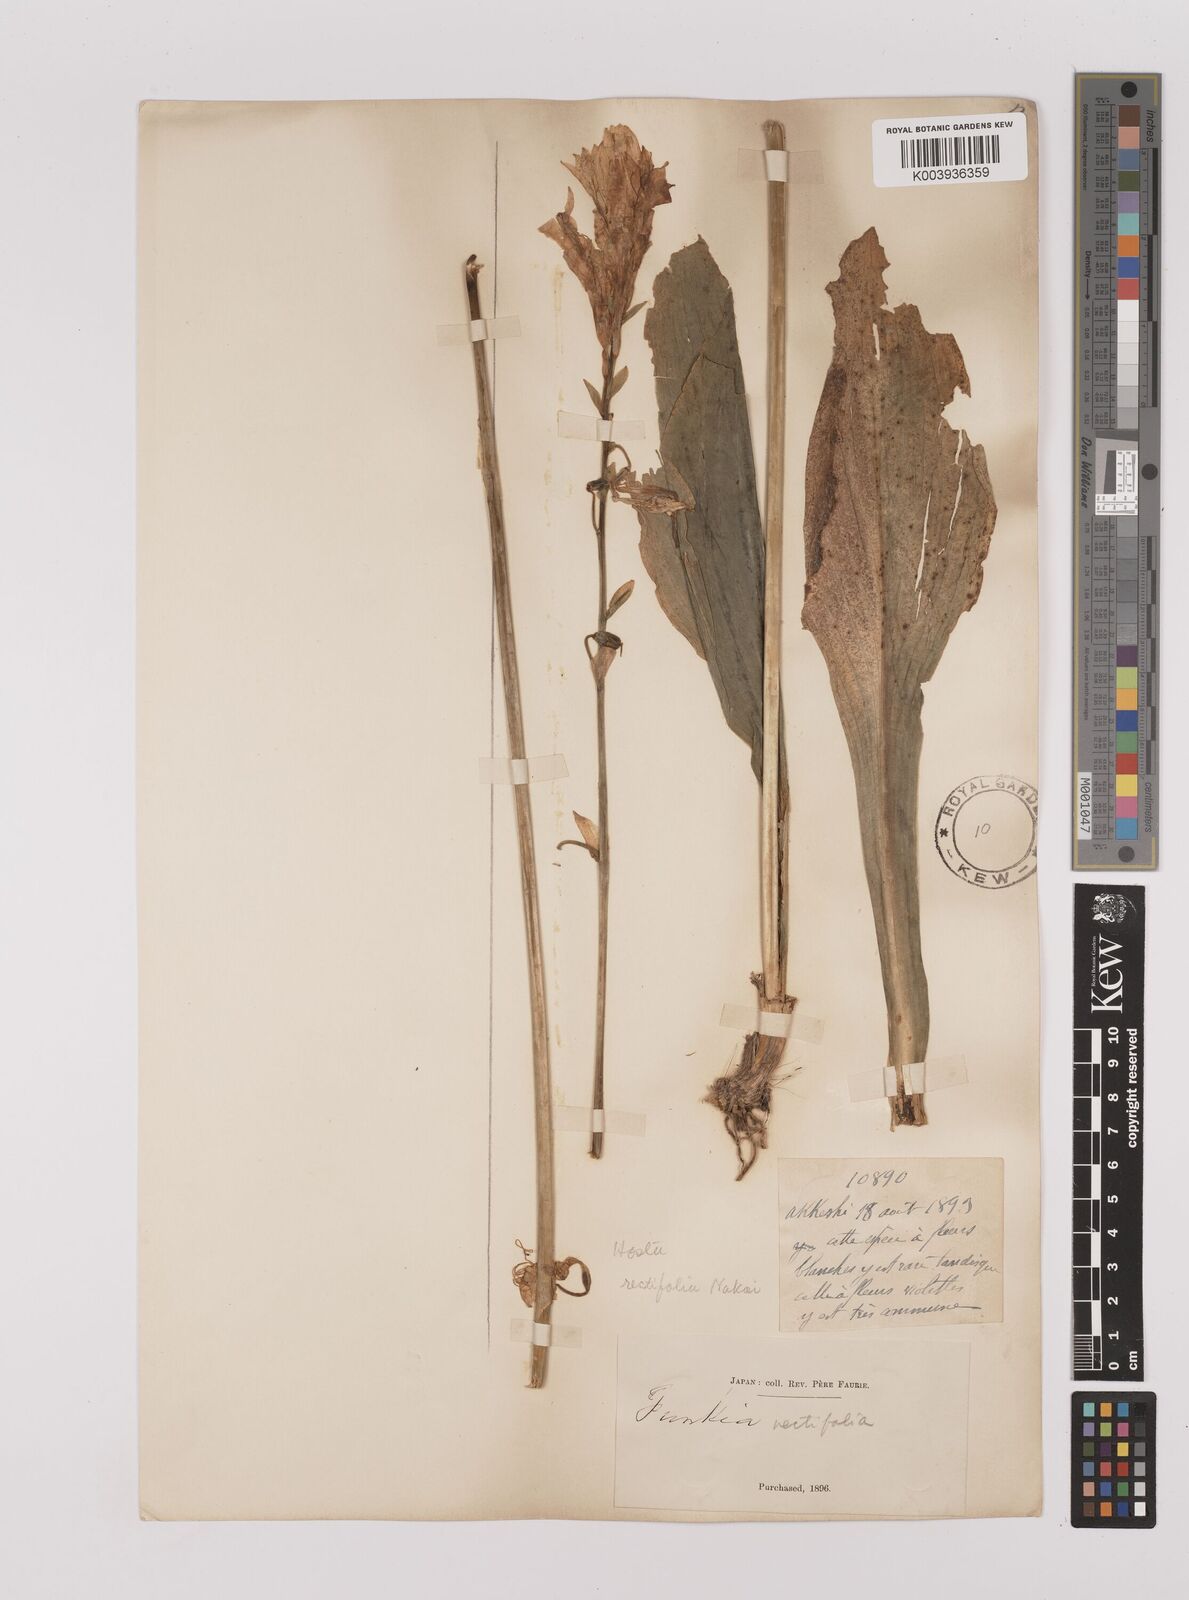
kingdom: Plantae
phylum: Tracheophyta
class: Liliopsida
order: Asparagales
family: Asparagaceae
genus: Hosta
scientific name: Hosta sieboldii
